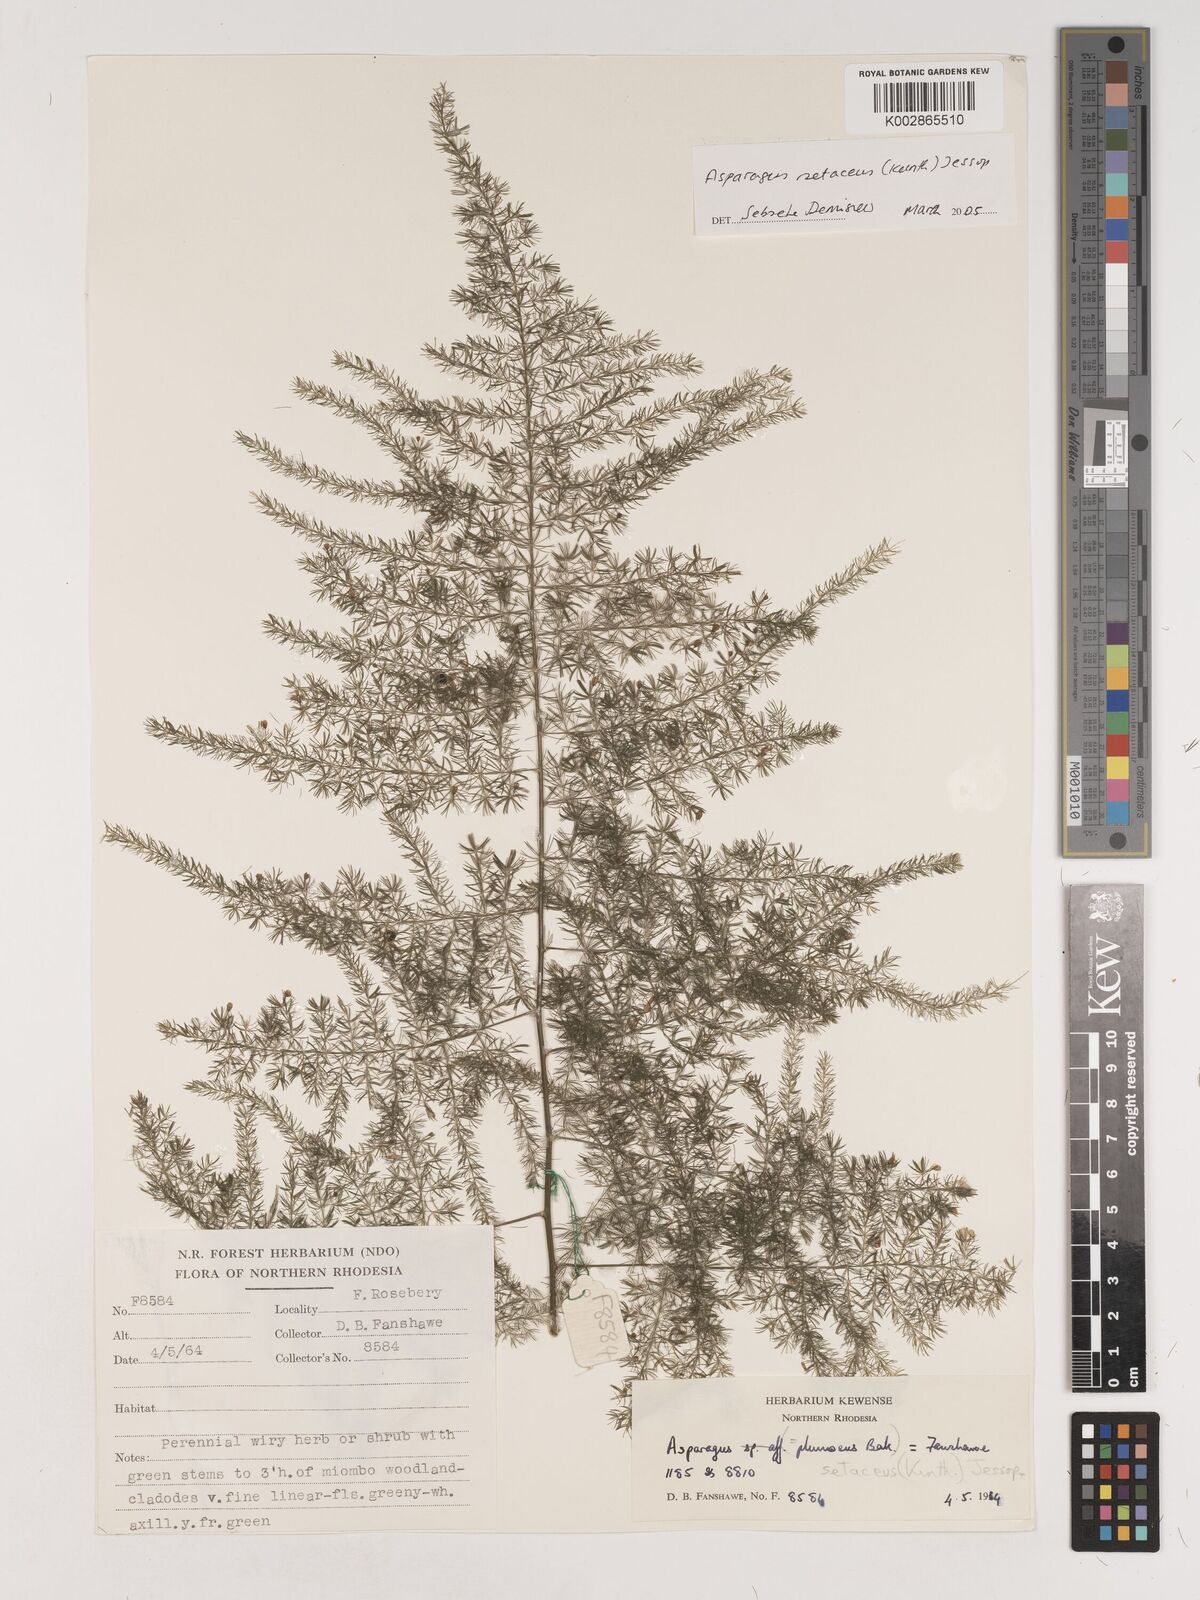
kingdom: Plantae
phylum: Tracheophyta
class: Liliopsida
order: Asparagales
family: Asparagaceae
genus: Asparagus
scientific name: Asparagus setaceus
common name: Common asparagus fern
